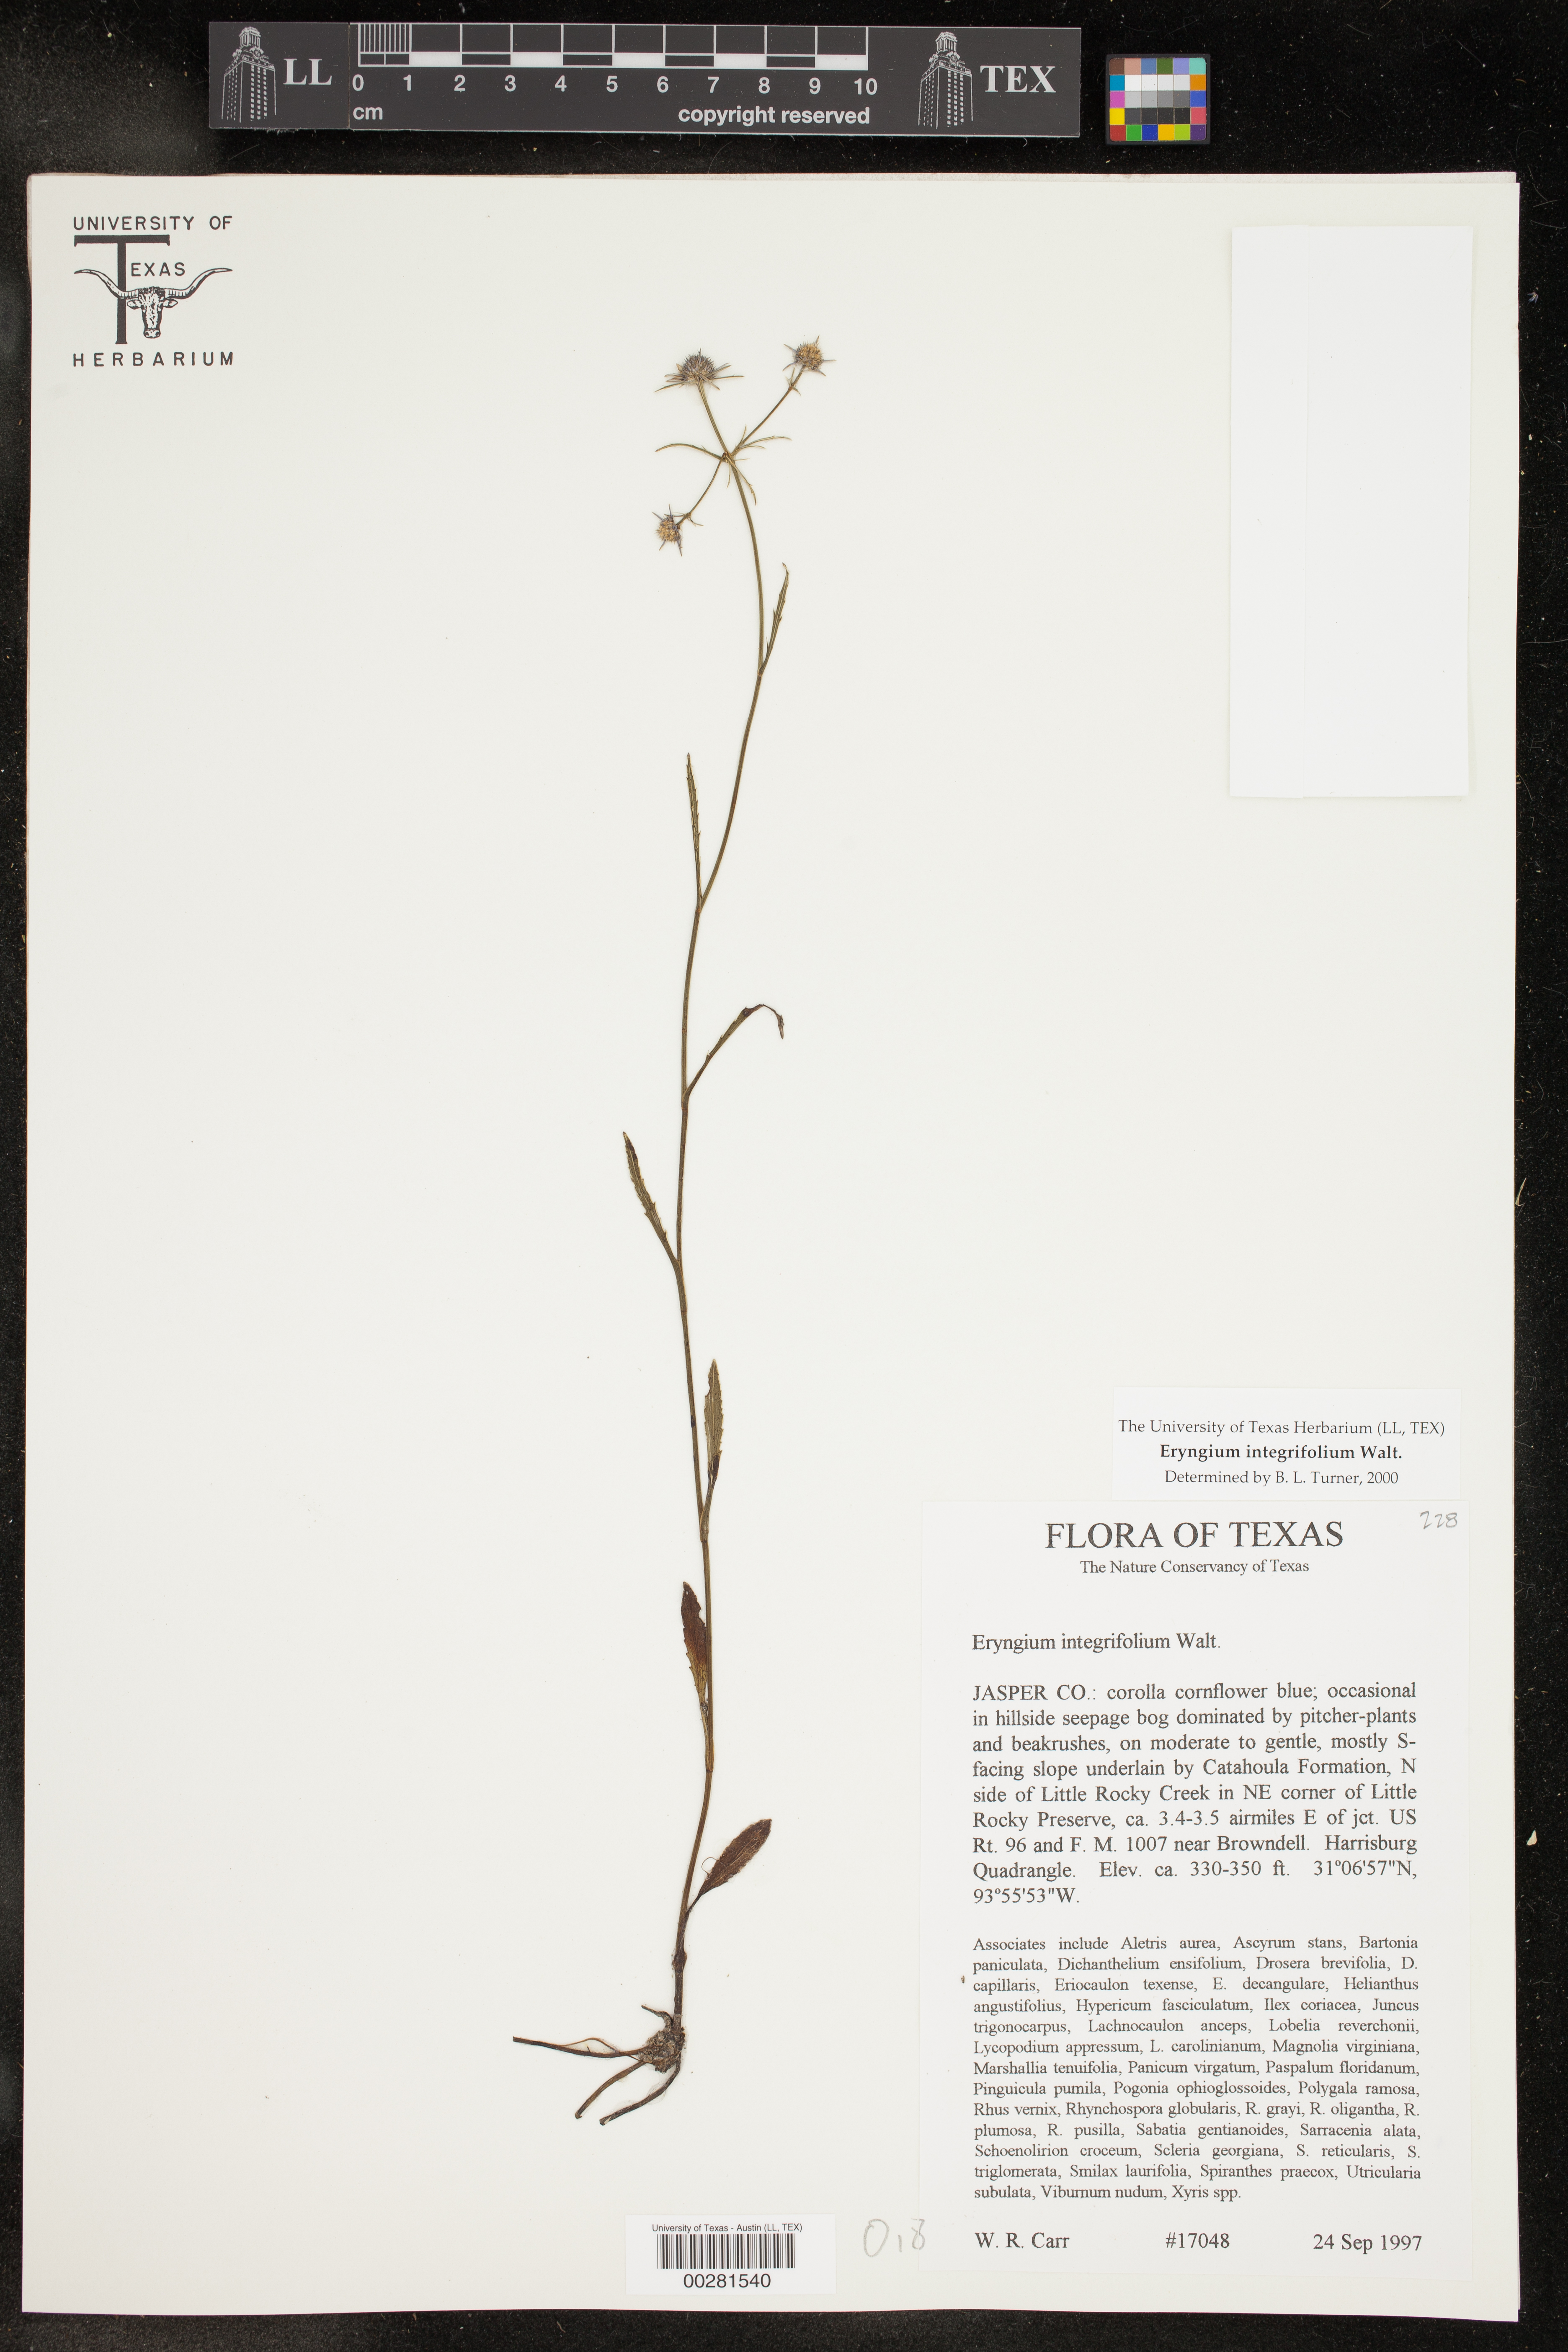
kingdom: Plantae
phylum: Tracheophyta
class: Magnoliopsida
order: Apiales
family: Apiaceae
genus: Eryngium
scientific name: Eryngium integrifolium
